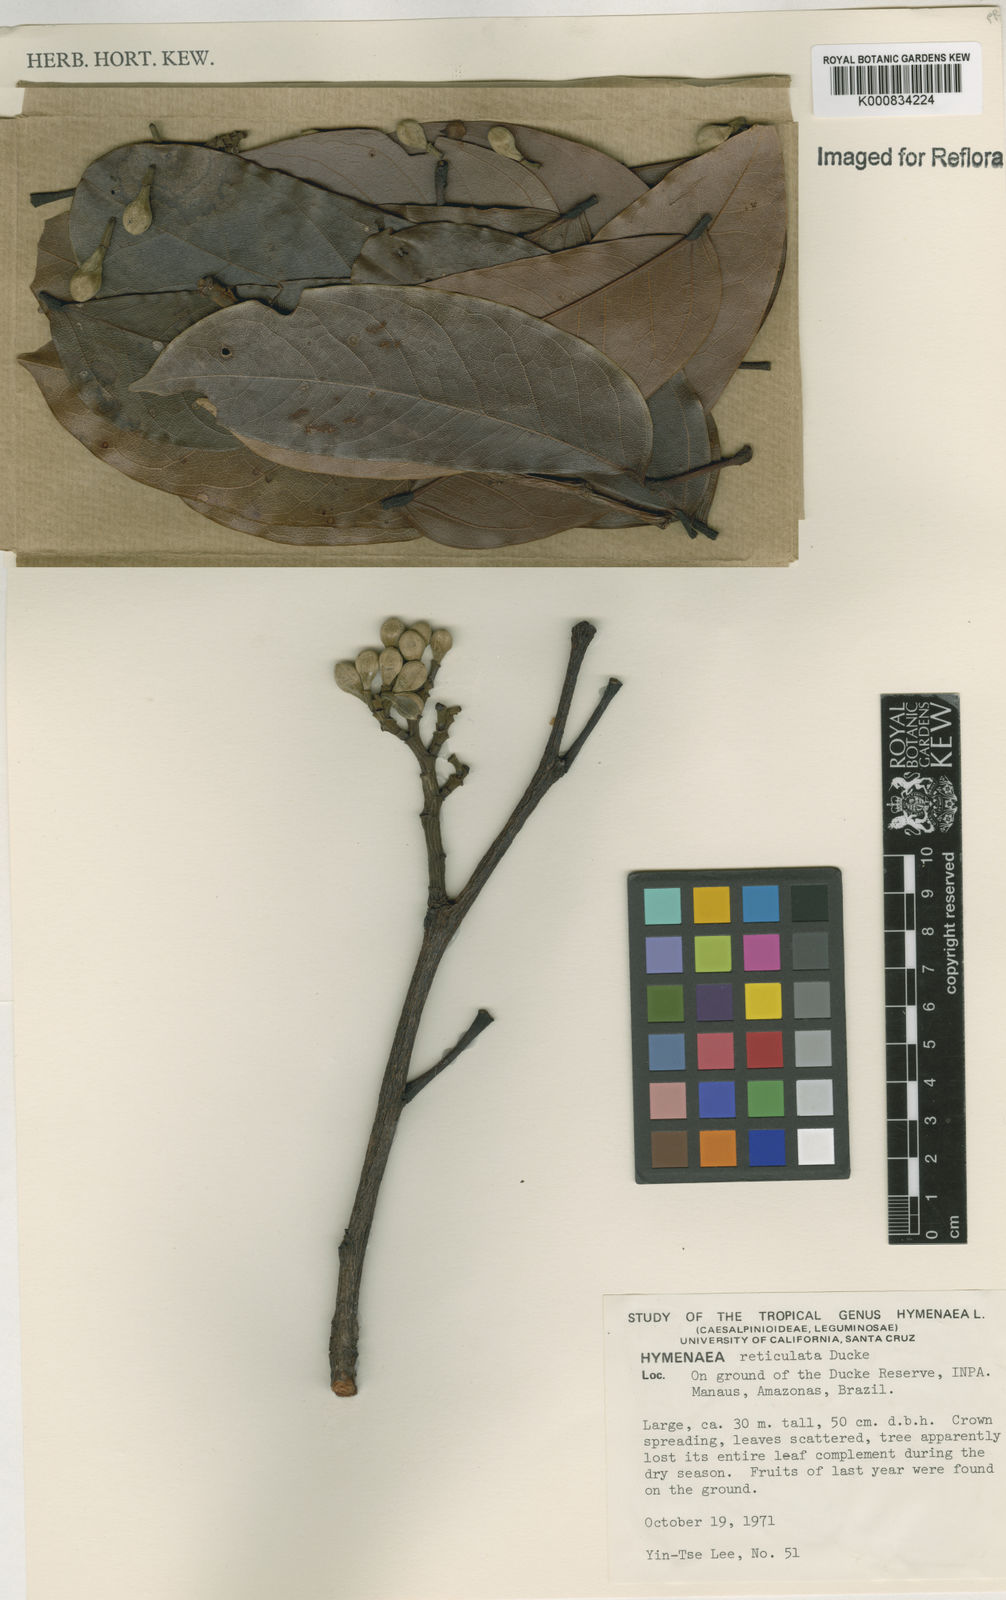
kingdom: Plantae
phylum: Tracheophyta
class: Magnoliopsida
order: Fabales
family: Fabaceae
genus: Hymenaea
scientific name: Hymenaea reticulata
